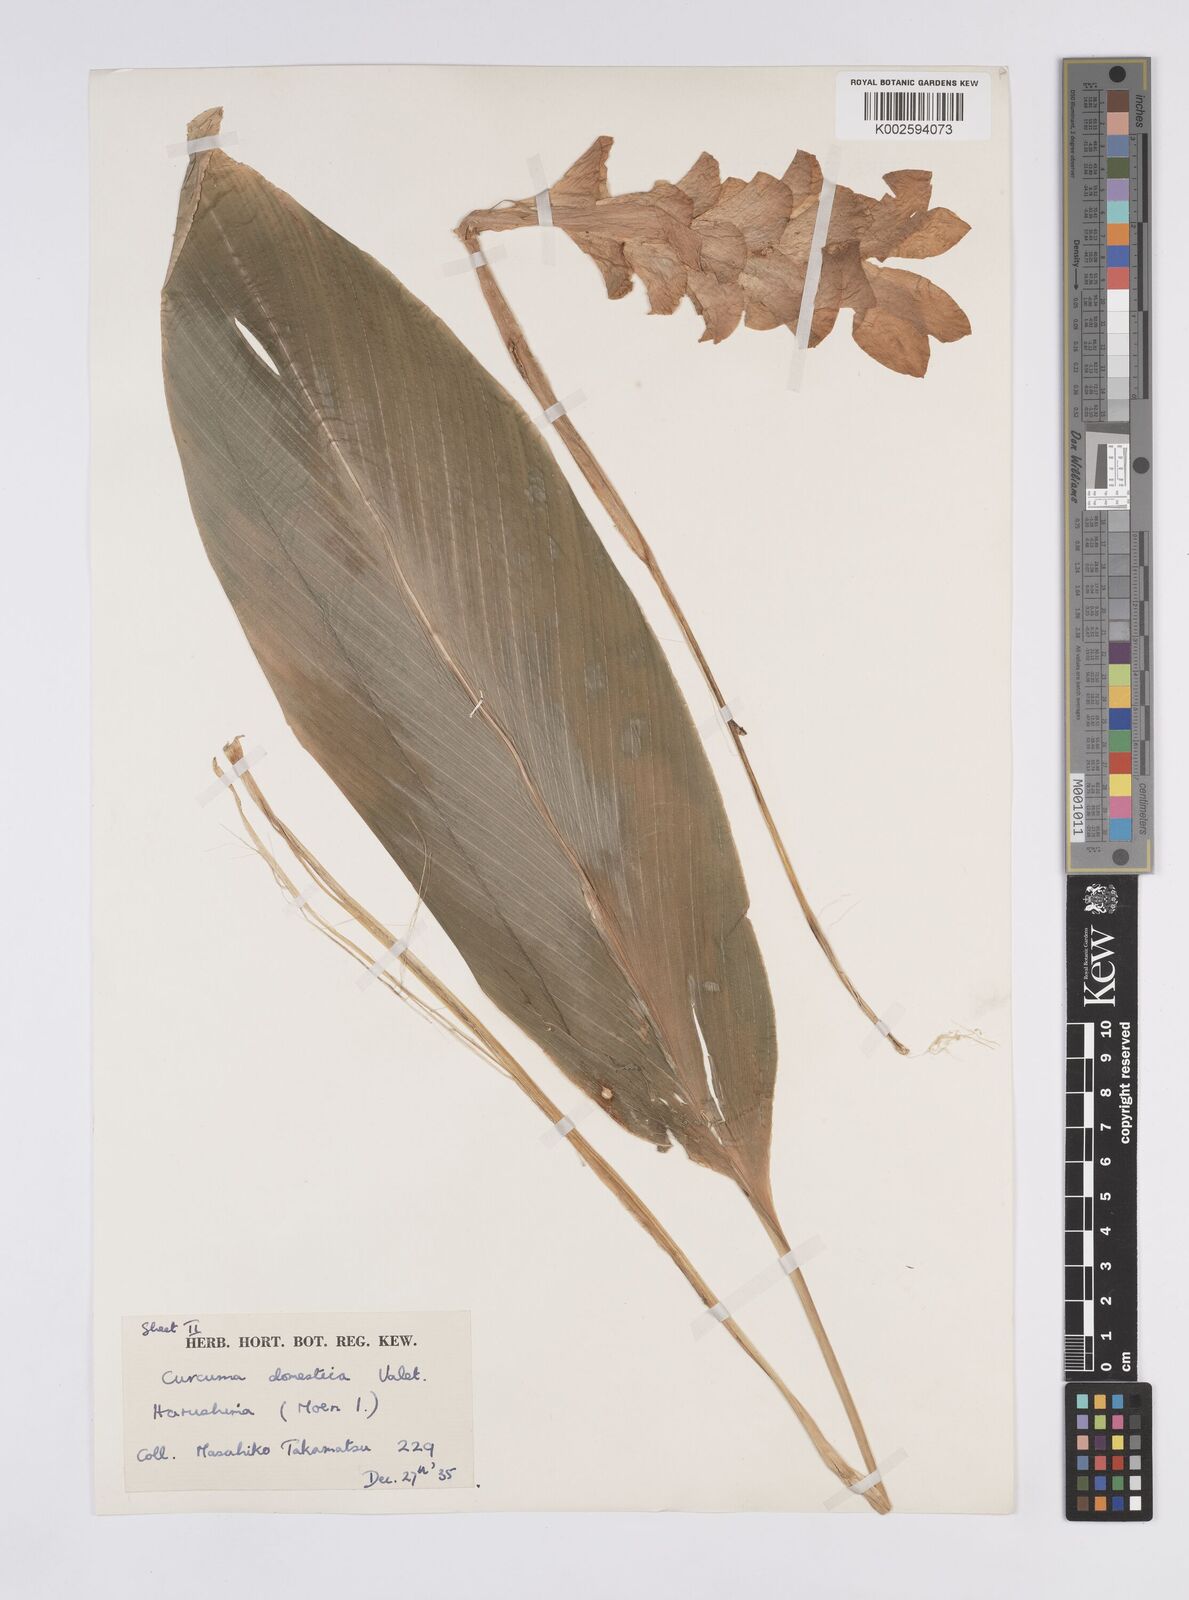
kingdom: Plantae
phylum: Tracheophyta
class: Liliopsida
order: Zingiberales
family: Zingiberaceae
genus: Curcuma
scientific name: Curcuma
